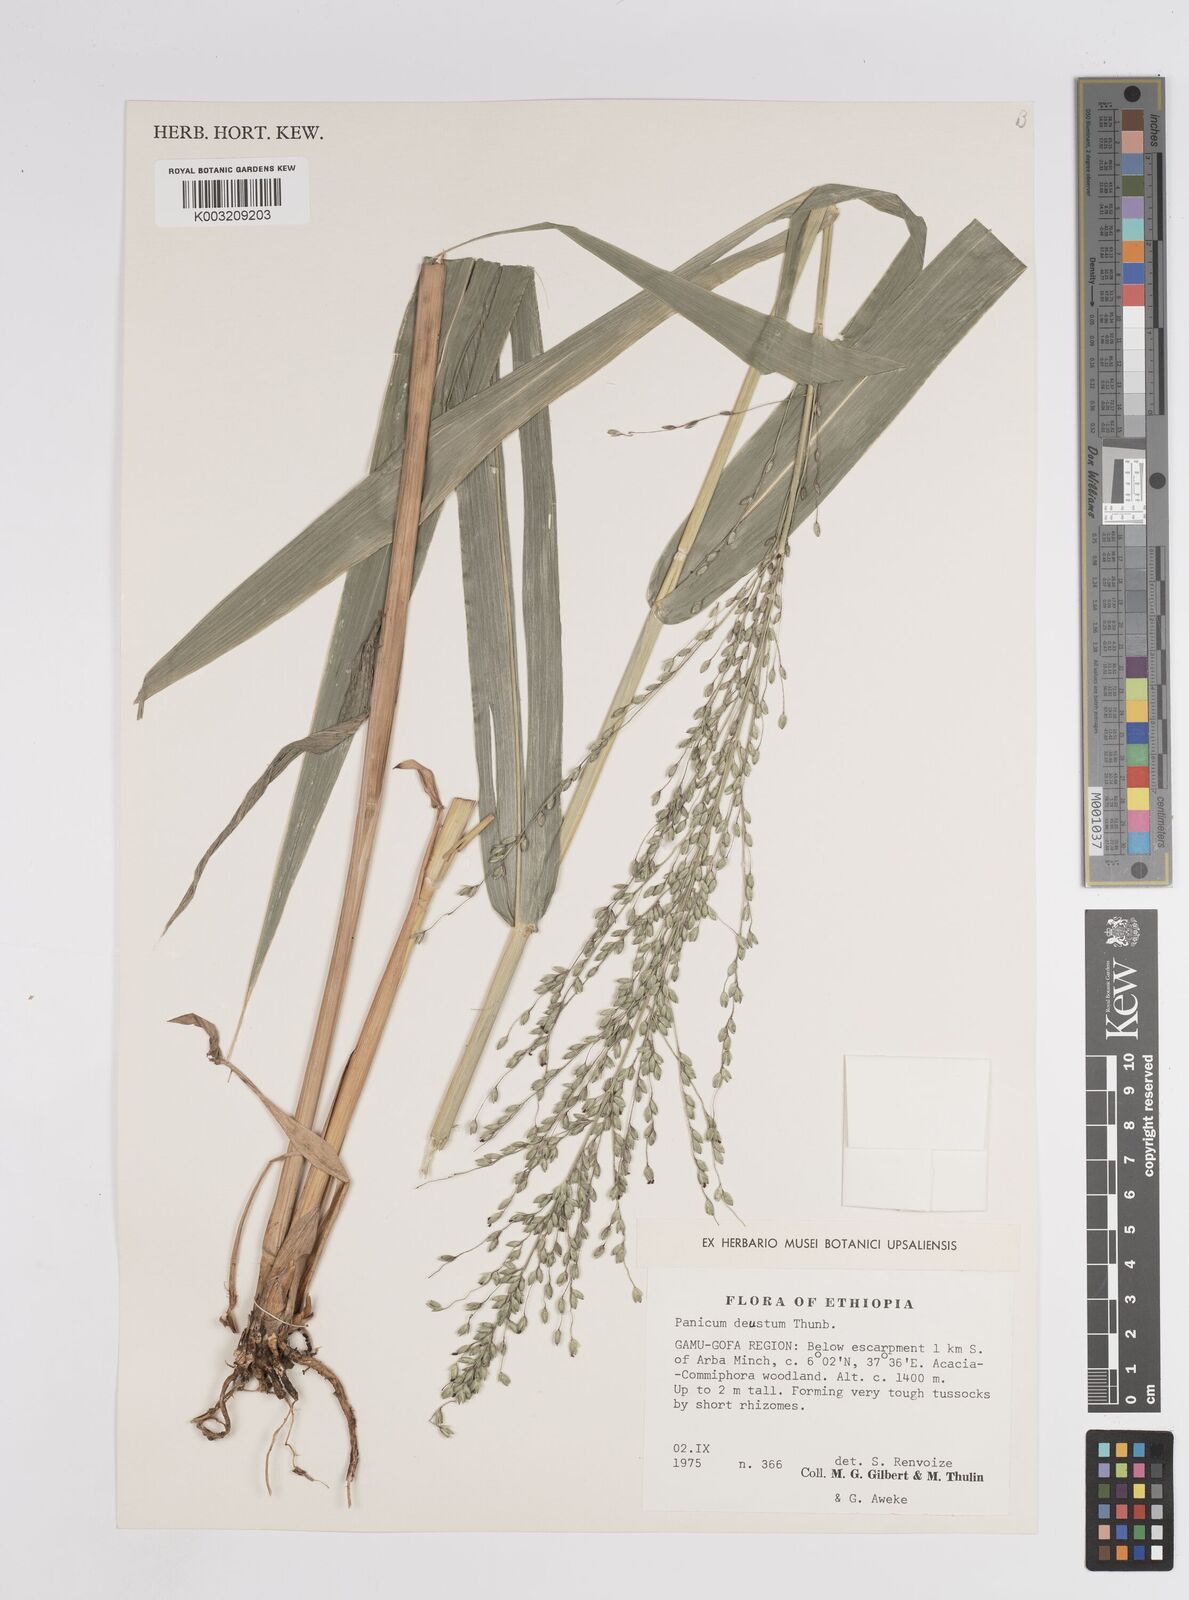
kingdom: Plantae
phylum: Tracheophyta
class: Liliopsida
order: Poales
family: Poaceae
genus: Panicum
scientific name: Panicum
